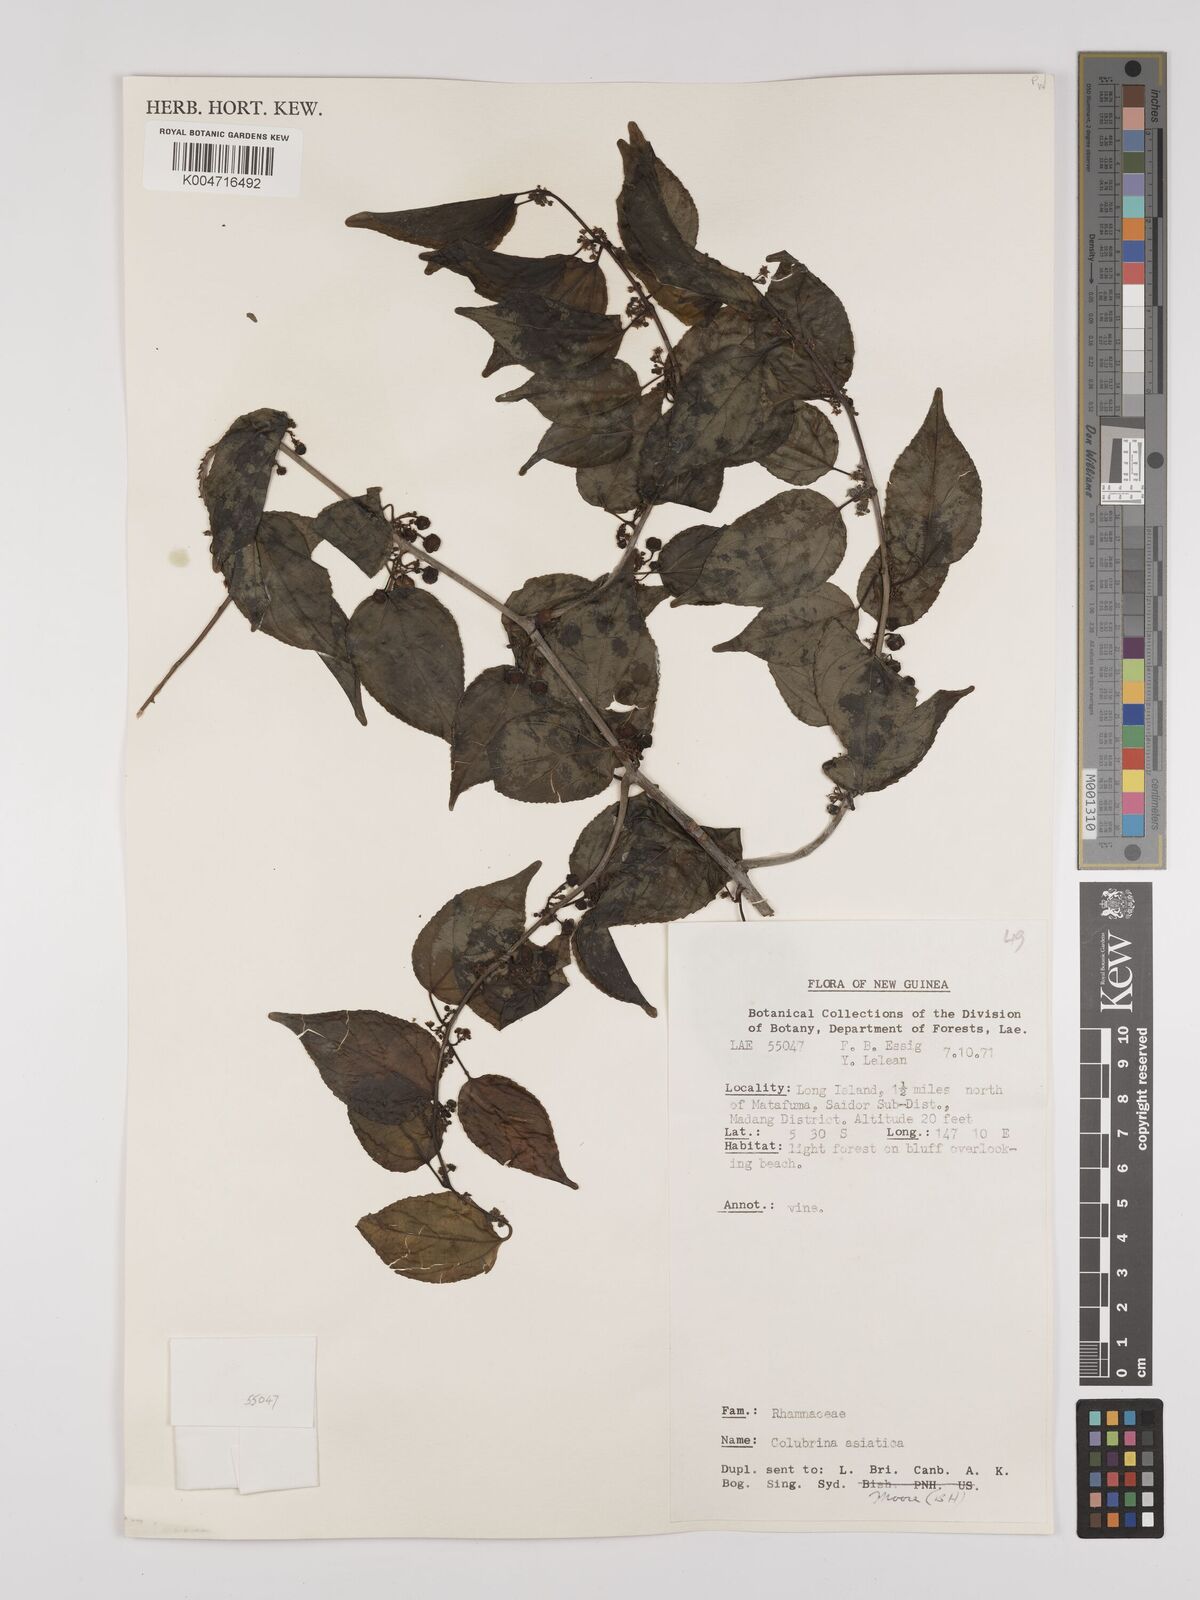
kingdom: Plantae
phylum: Tracheophyta
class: Magnoliopsida
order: Rosales
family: Rhamnaceae
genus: Colubrina
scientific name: Colubrina asiatica
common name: Asian nakedwood
